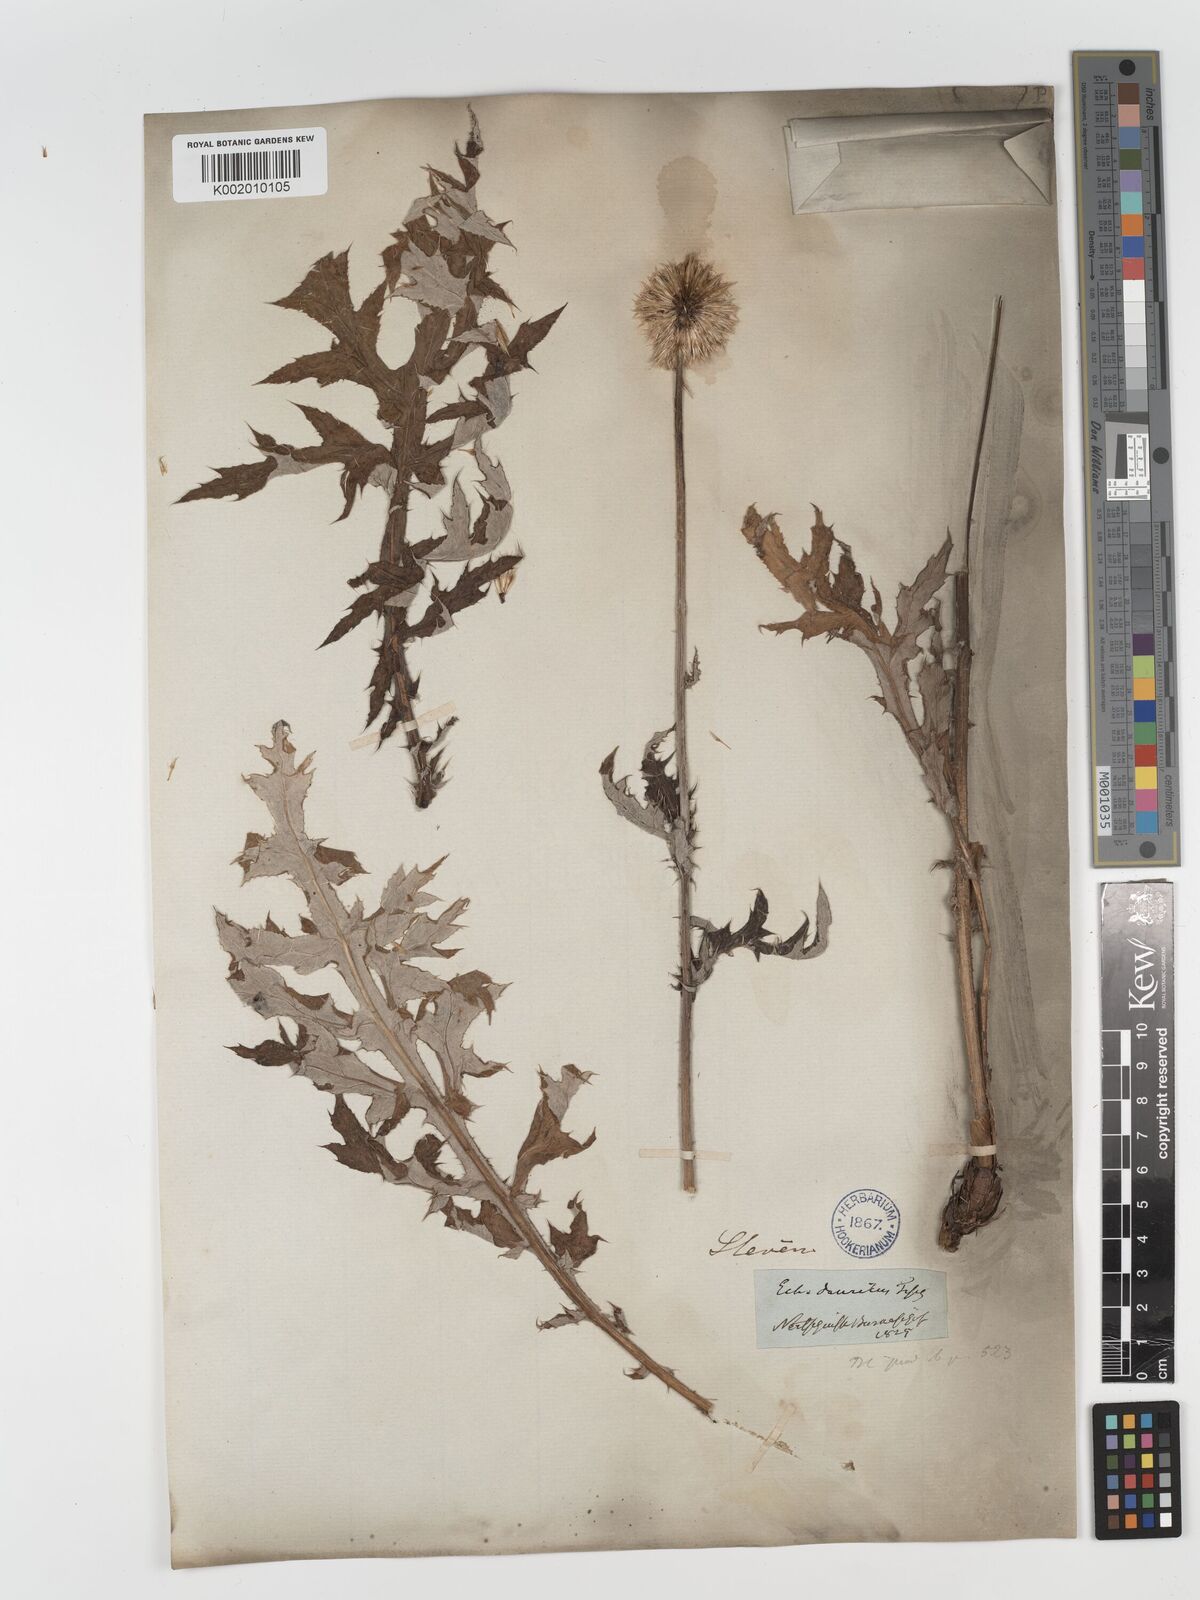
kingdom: Plantae
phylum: Tracheophyta
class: Magnoliopsida
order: Asterales
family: Asteraceae
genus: Echinops
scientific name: Echinops humilis
